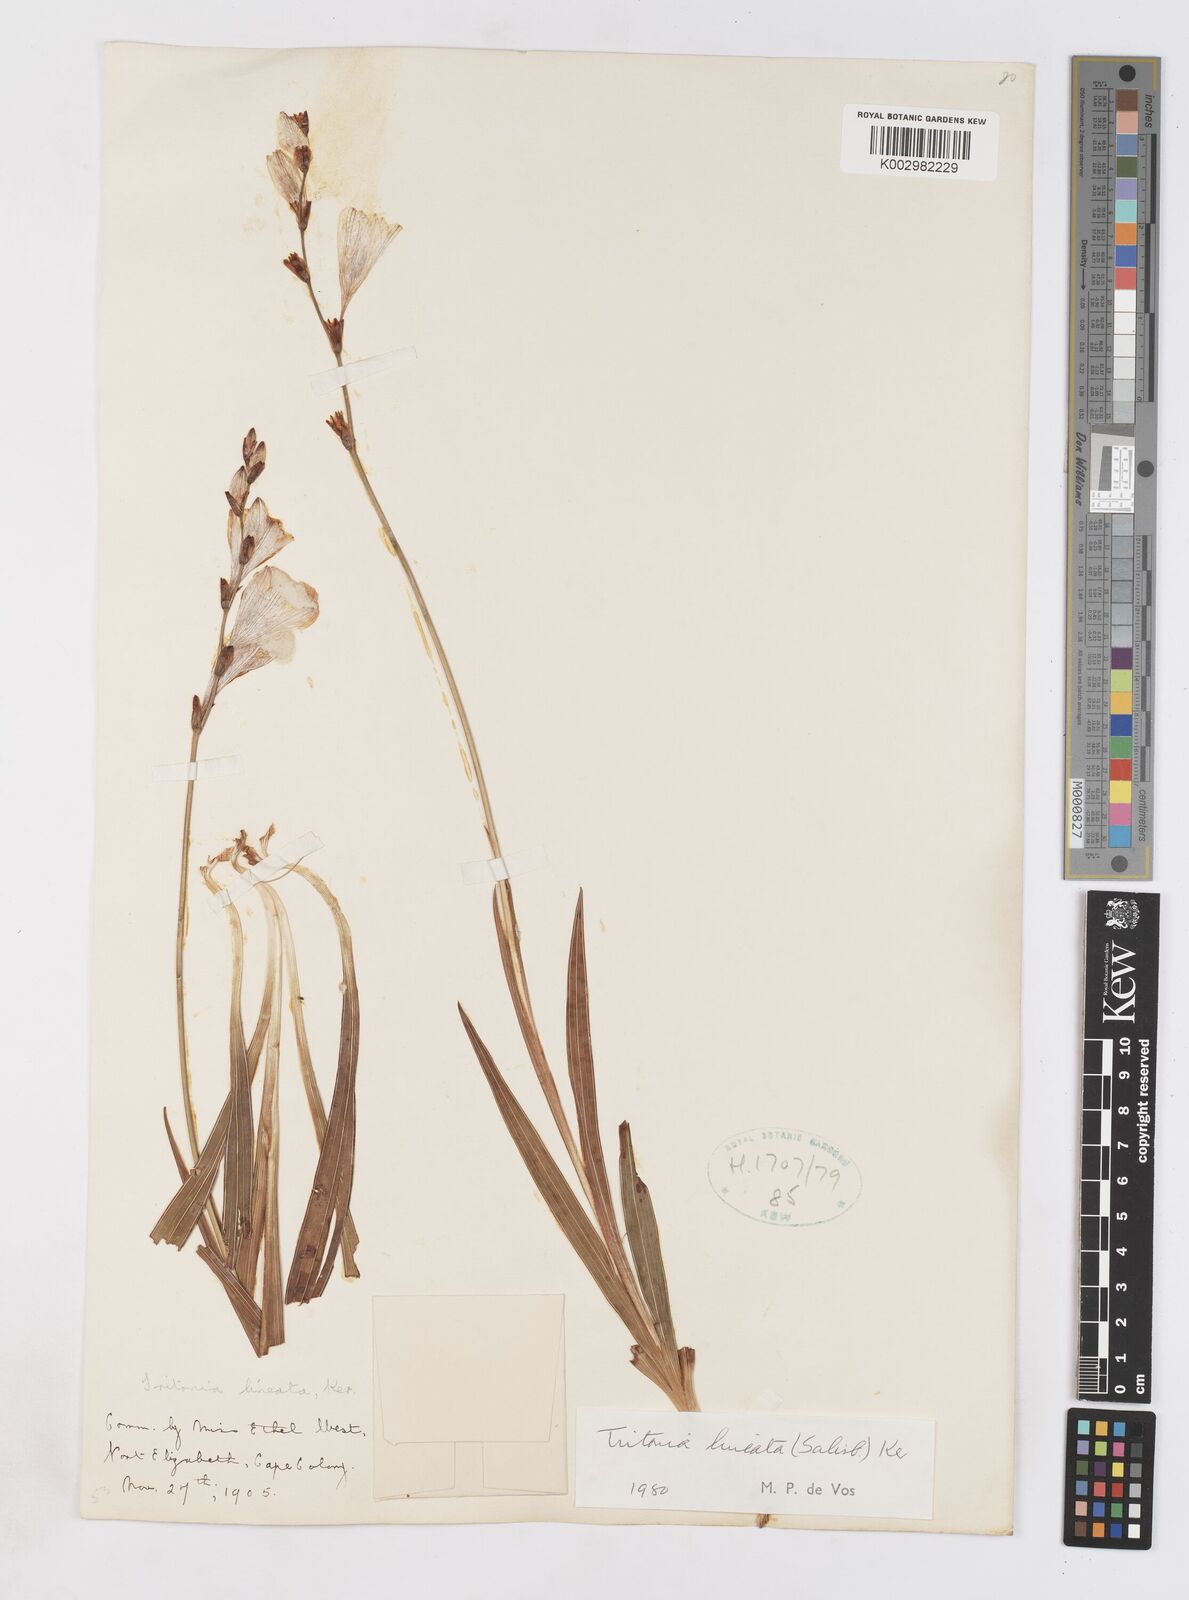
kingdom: Plantae
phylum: Tracheophyta
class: Liliopsida
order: Asparagales
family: Iridaceae
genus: Tritonia
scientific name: Tritonia gladiolaris
